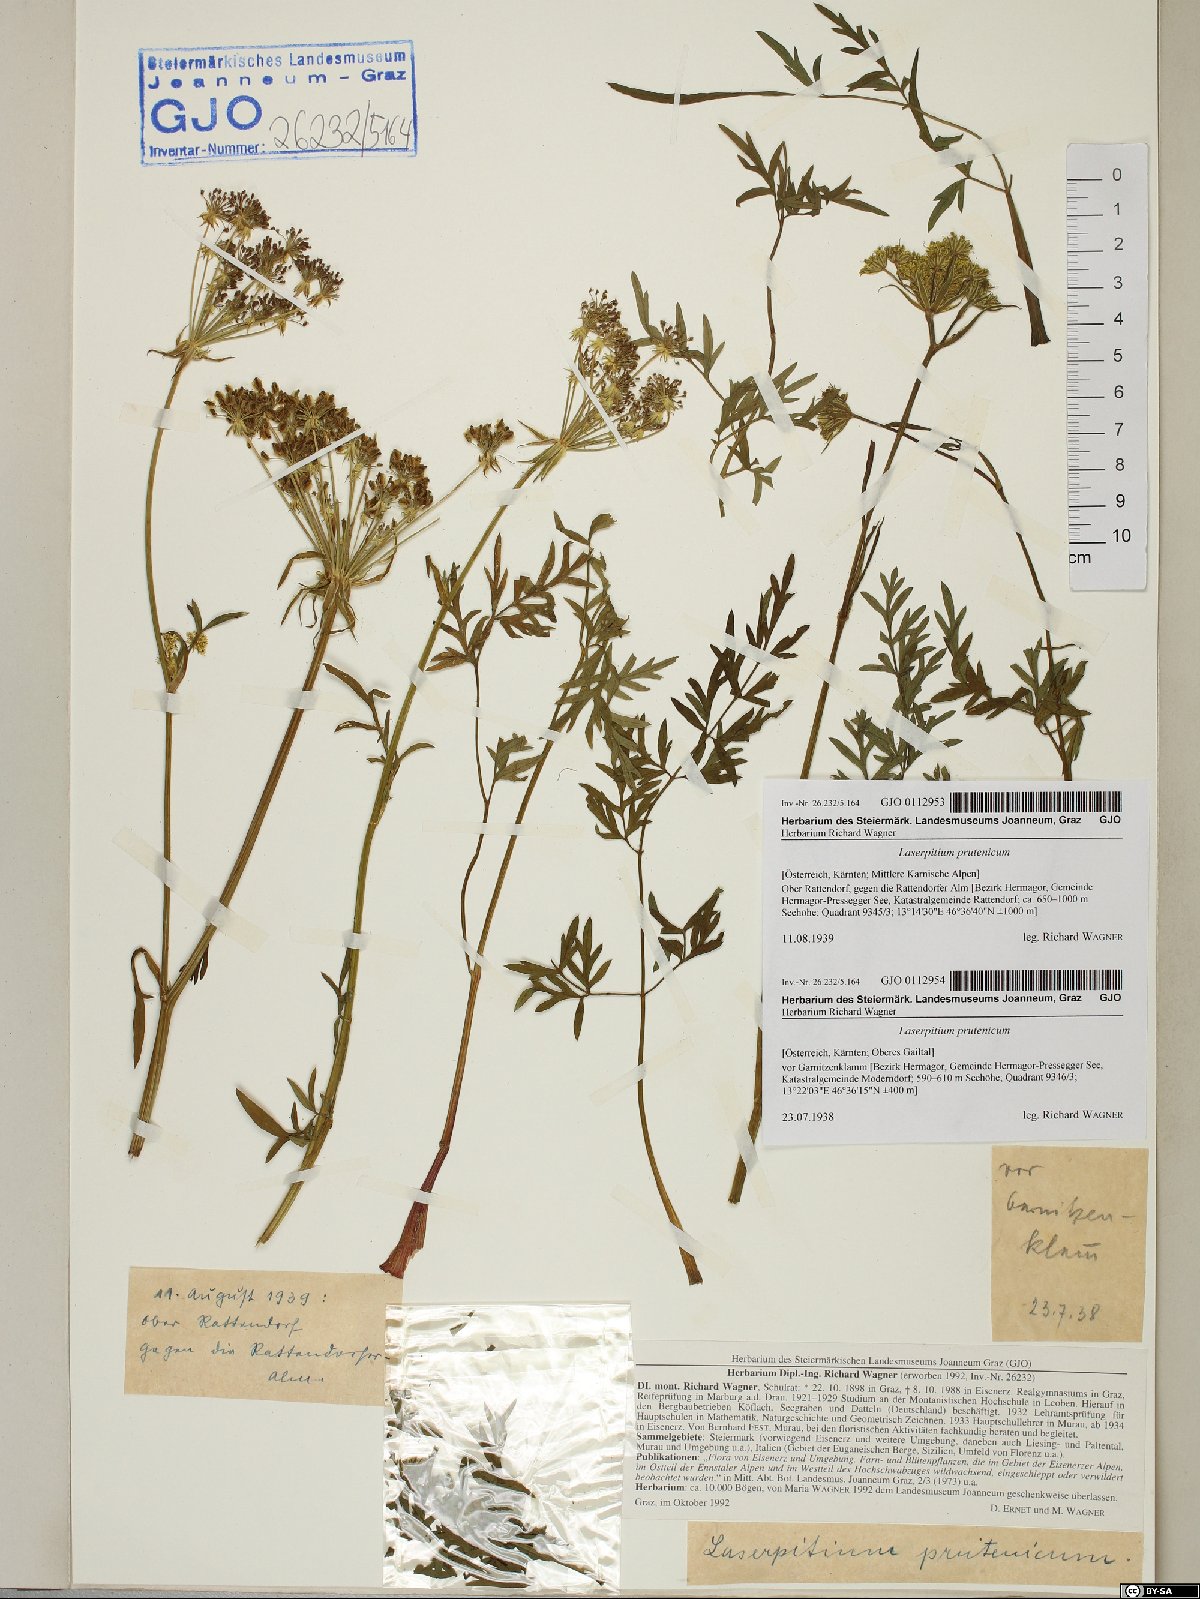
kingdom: Plantae
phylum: Tracheophyta
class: Magnoliopsida
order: Apiales
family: Apiaceae
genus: Silphiodaucus
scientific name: Silphiodaucus prutenicus
